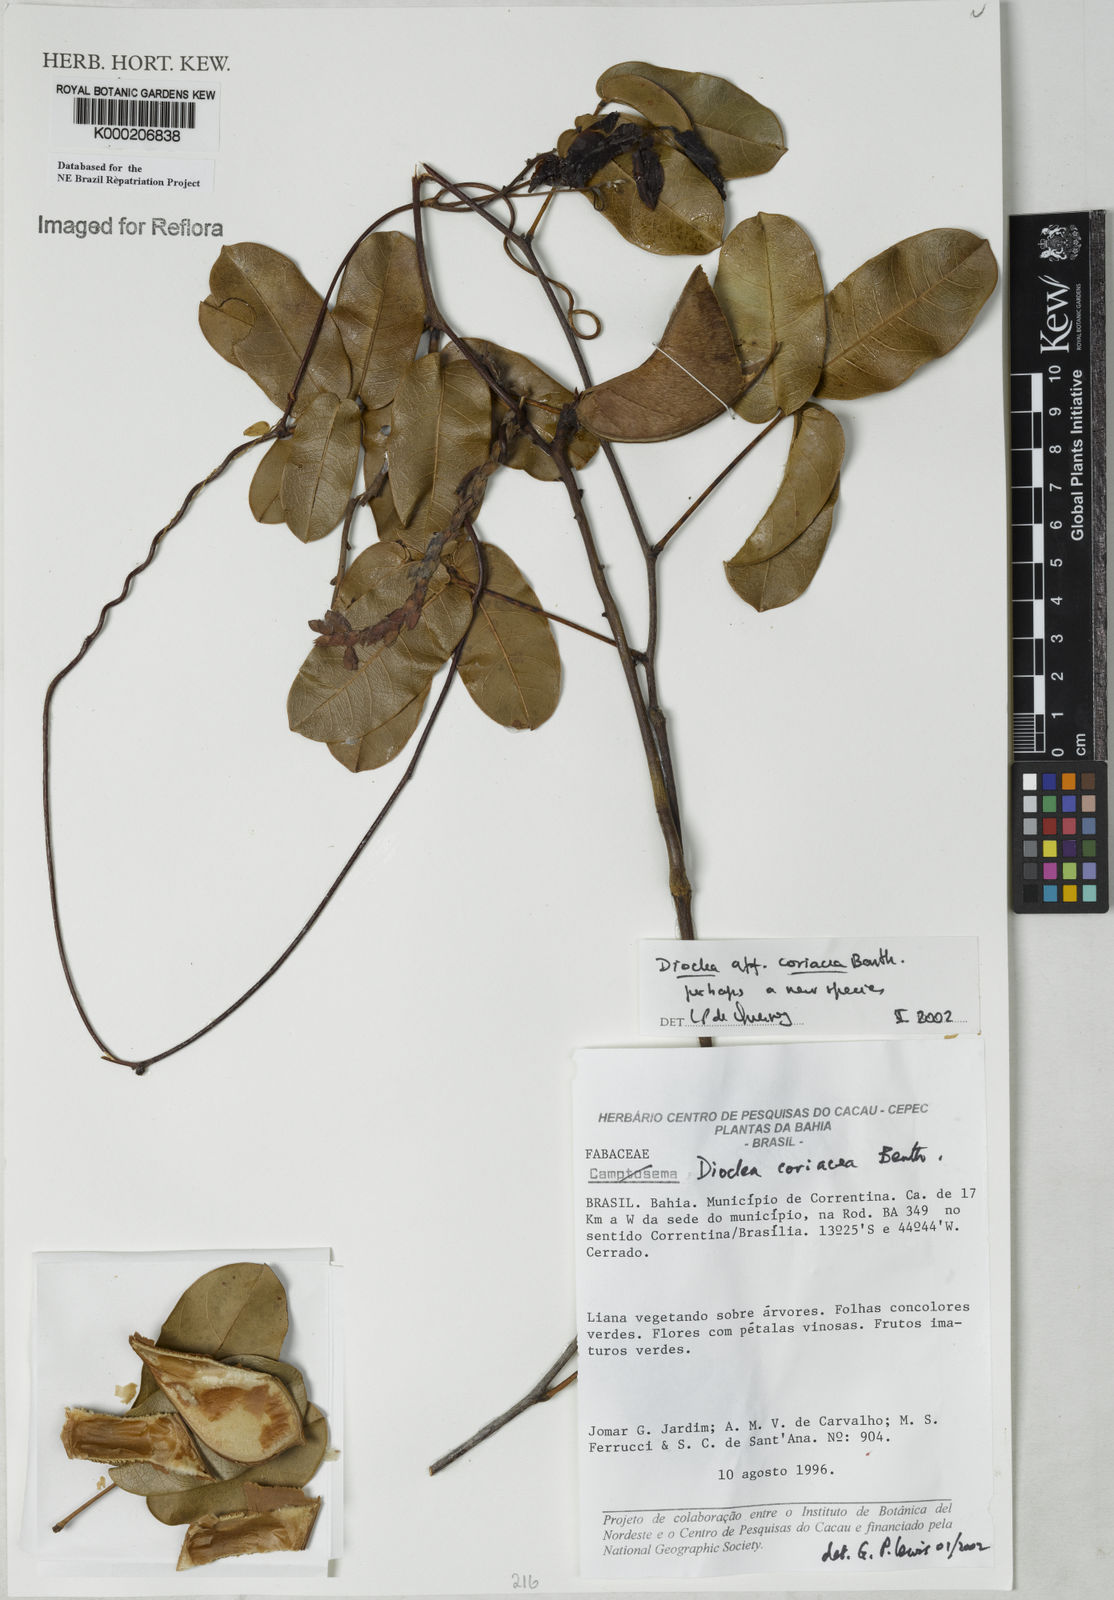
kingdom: Plantae
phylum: Tracheophyta
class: Magnoliopsida
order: Fabales
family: Fabaceae
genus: Macropsychanthus
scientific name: Macropsychanthus coriaceus
